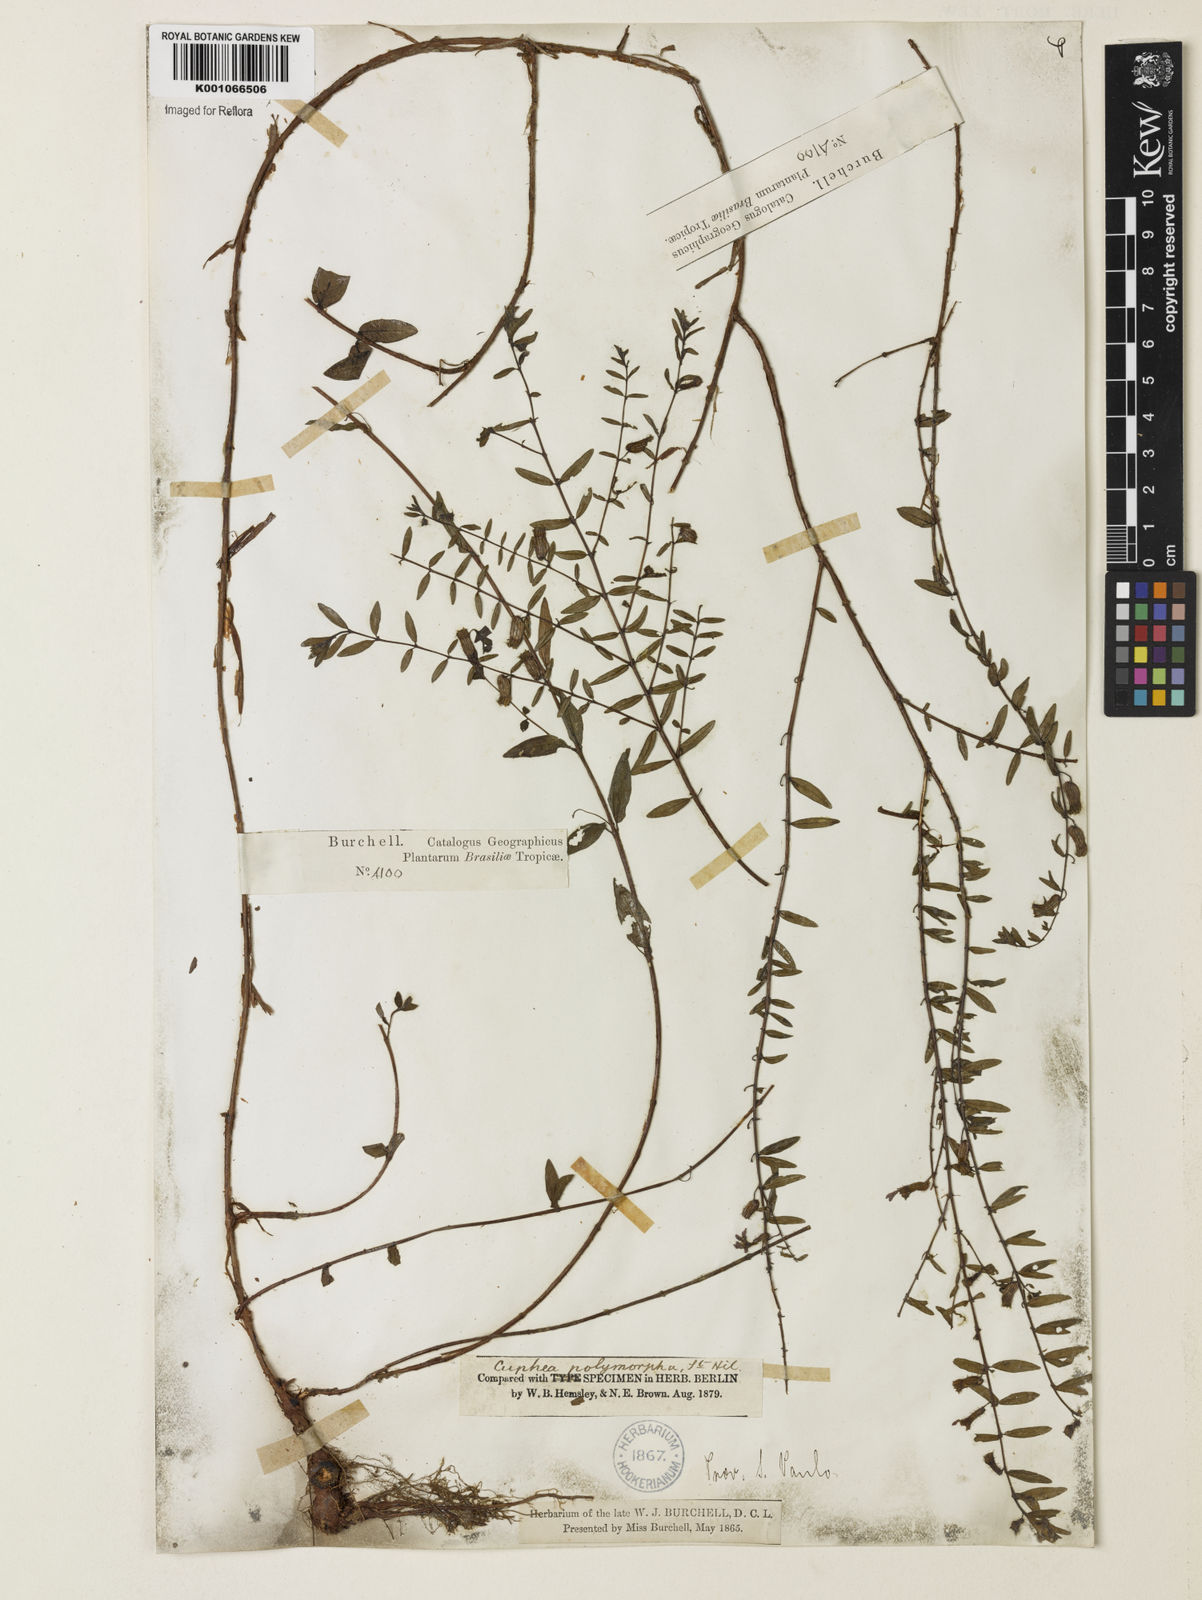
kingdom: Plantae
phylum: Tracheophyta
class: Magnoliopsida
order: Myrtales
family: Lythraceae
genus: Cuphea
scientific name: Cuphea polymorpha
